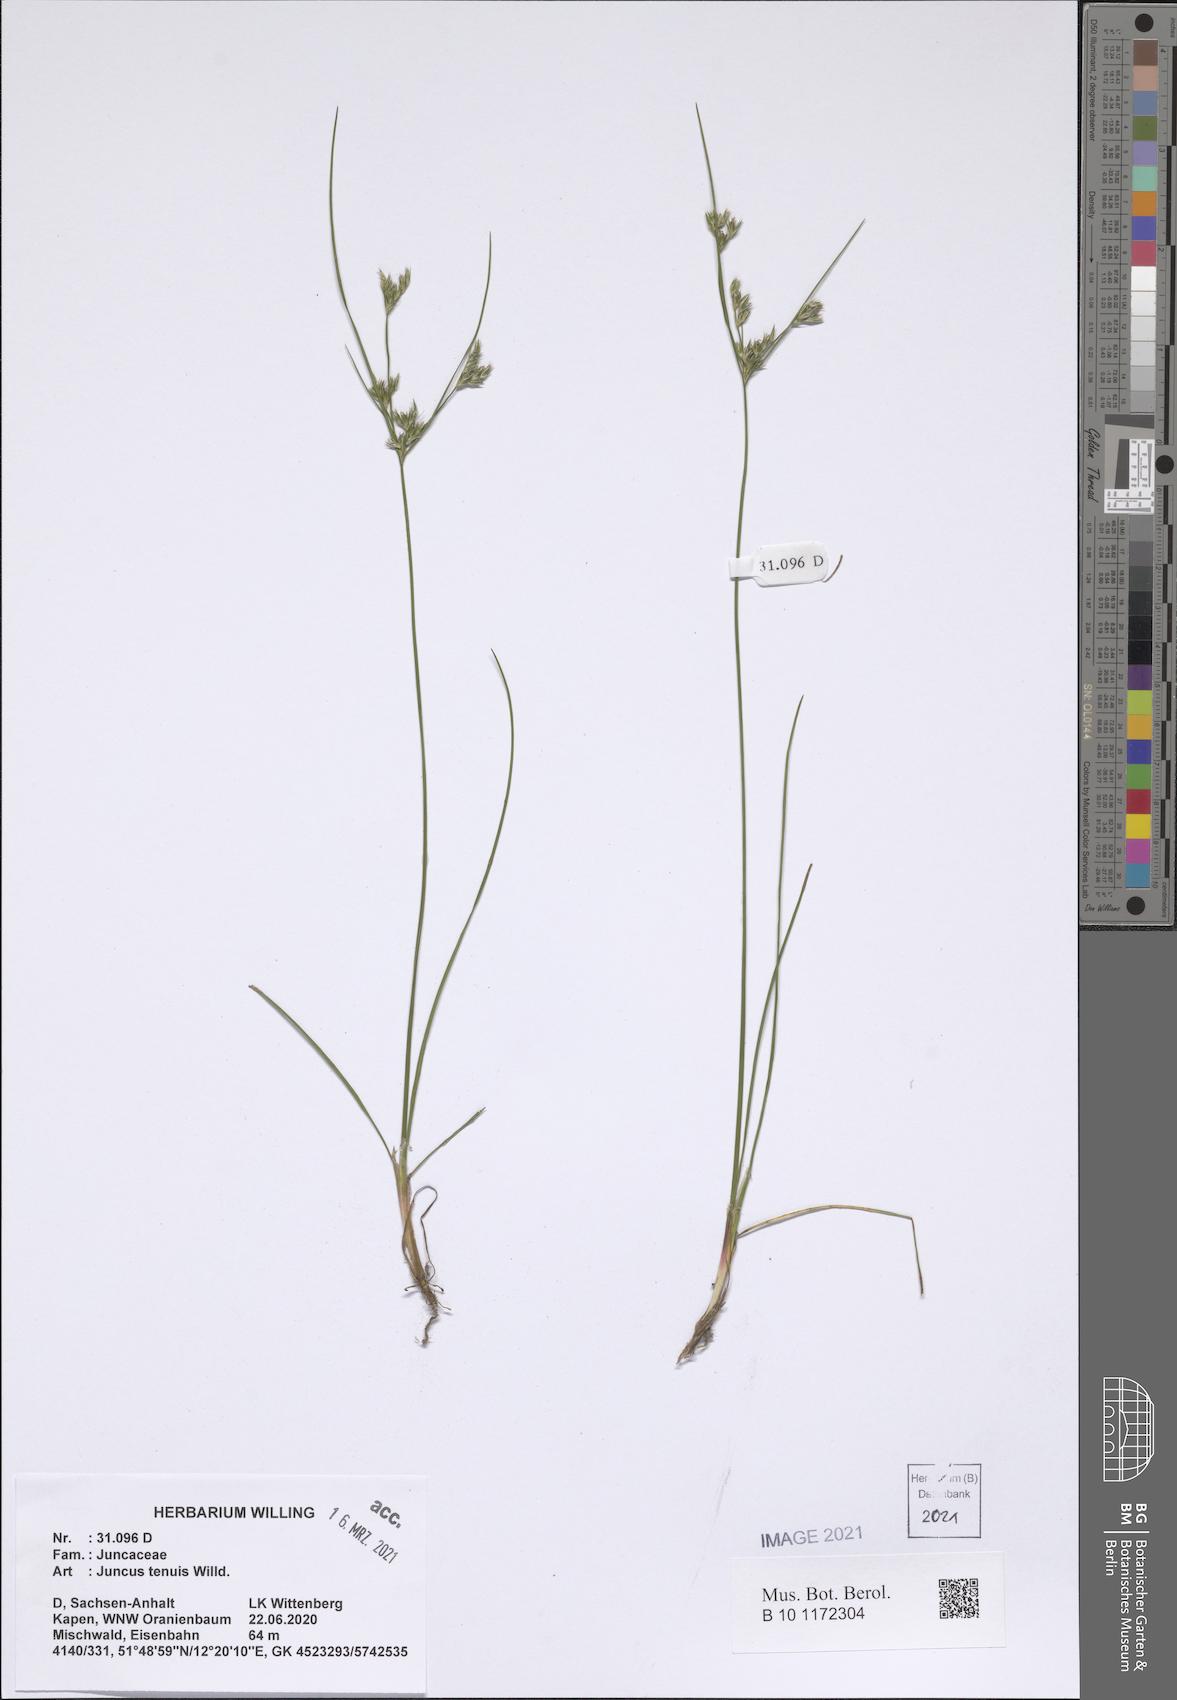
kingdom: Plantae
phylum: Tracheophyta
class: Liliopsida
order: Poales
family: Juncaceae
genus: Juncus
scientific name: Juncus tenuis
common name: Slender rush
